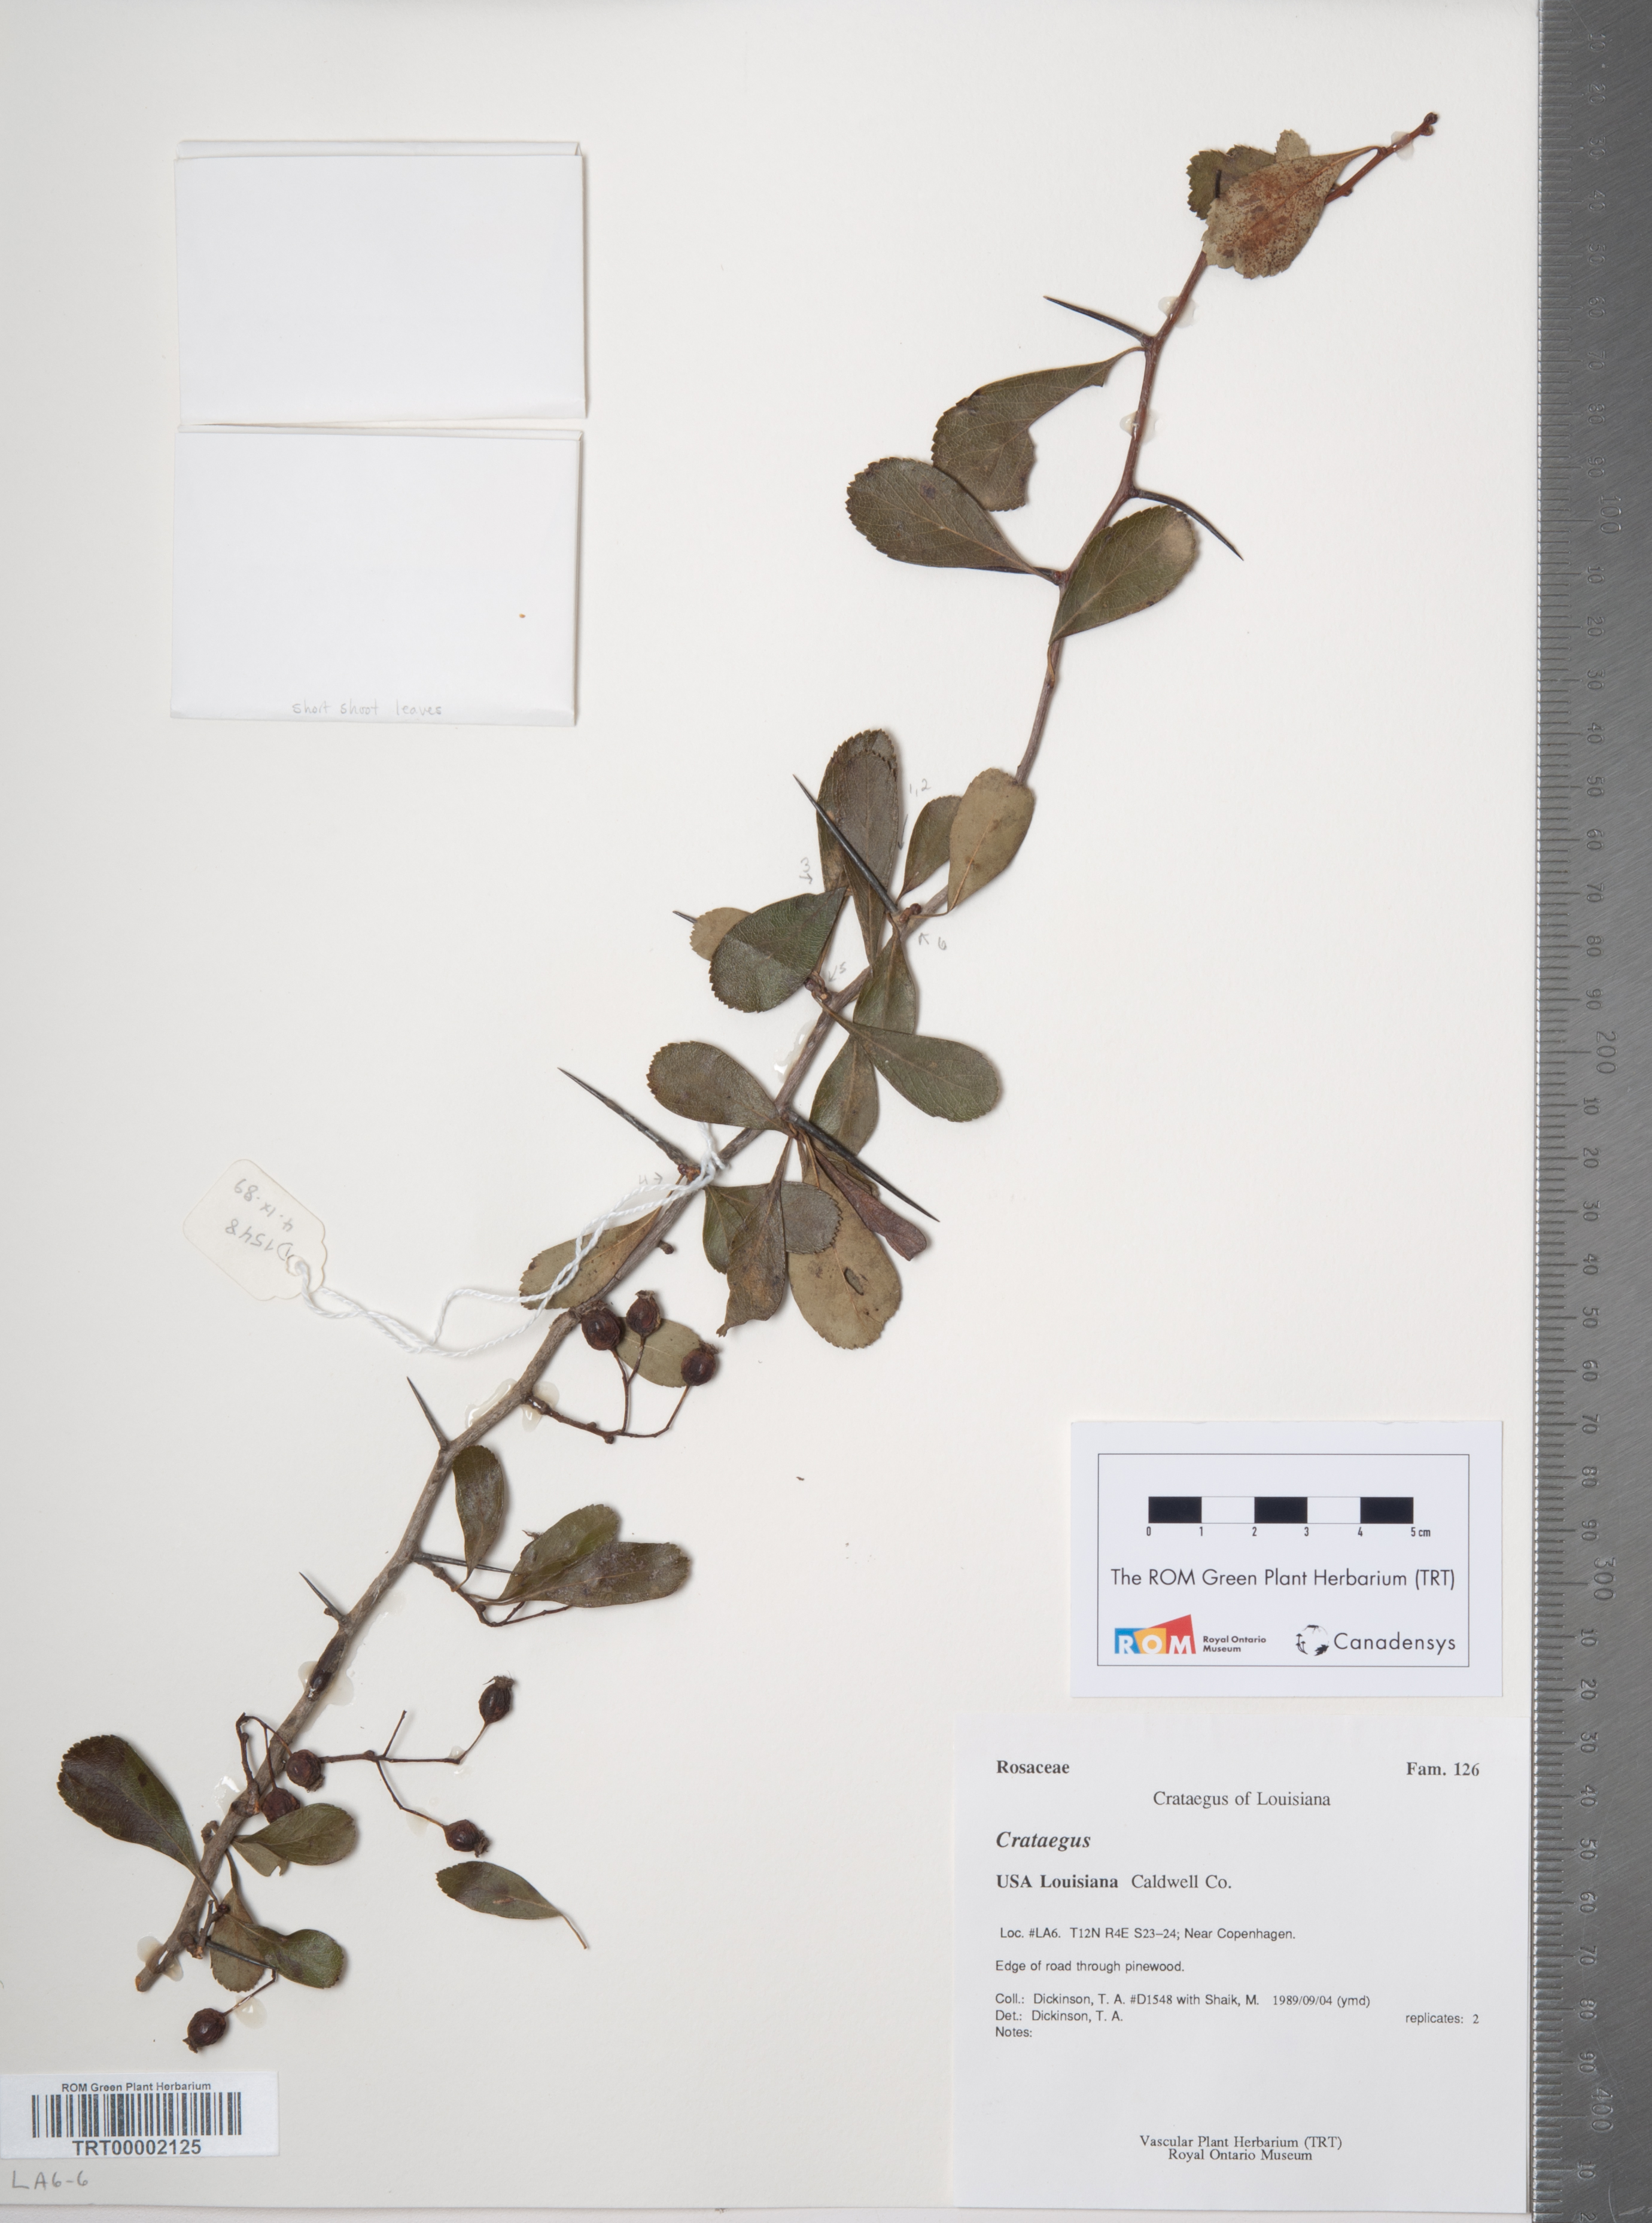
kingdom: Plantae
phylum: Tracheophyta
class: Magnoliopsida
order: Rosales
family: Rosaceae
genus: Crataegus
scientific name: Crataegus
